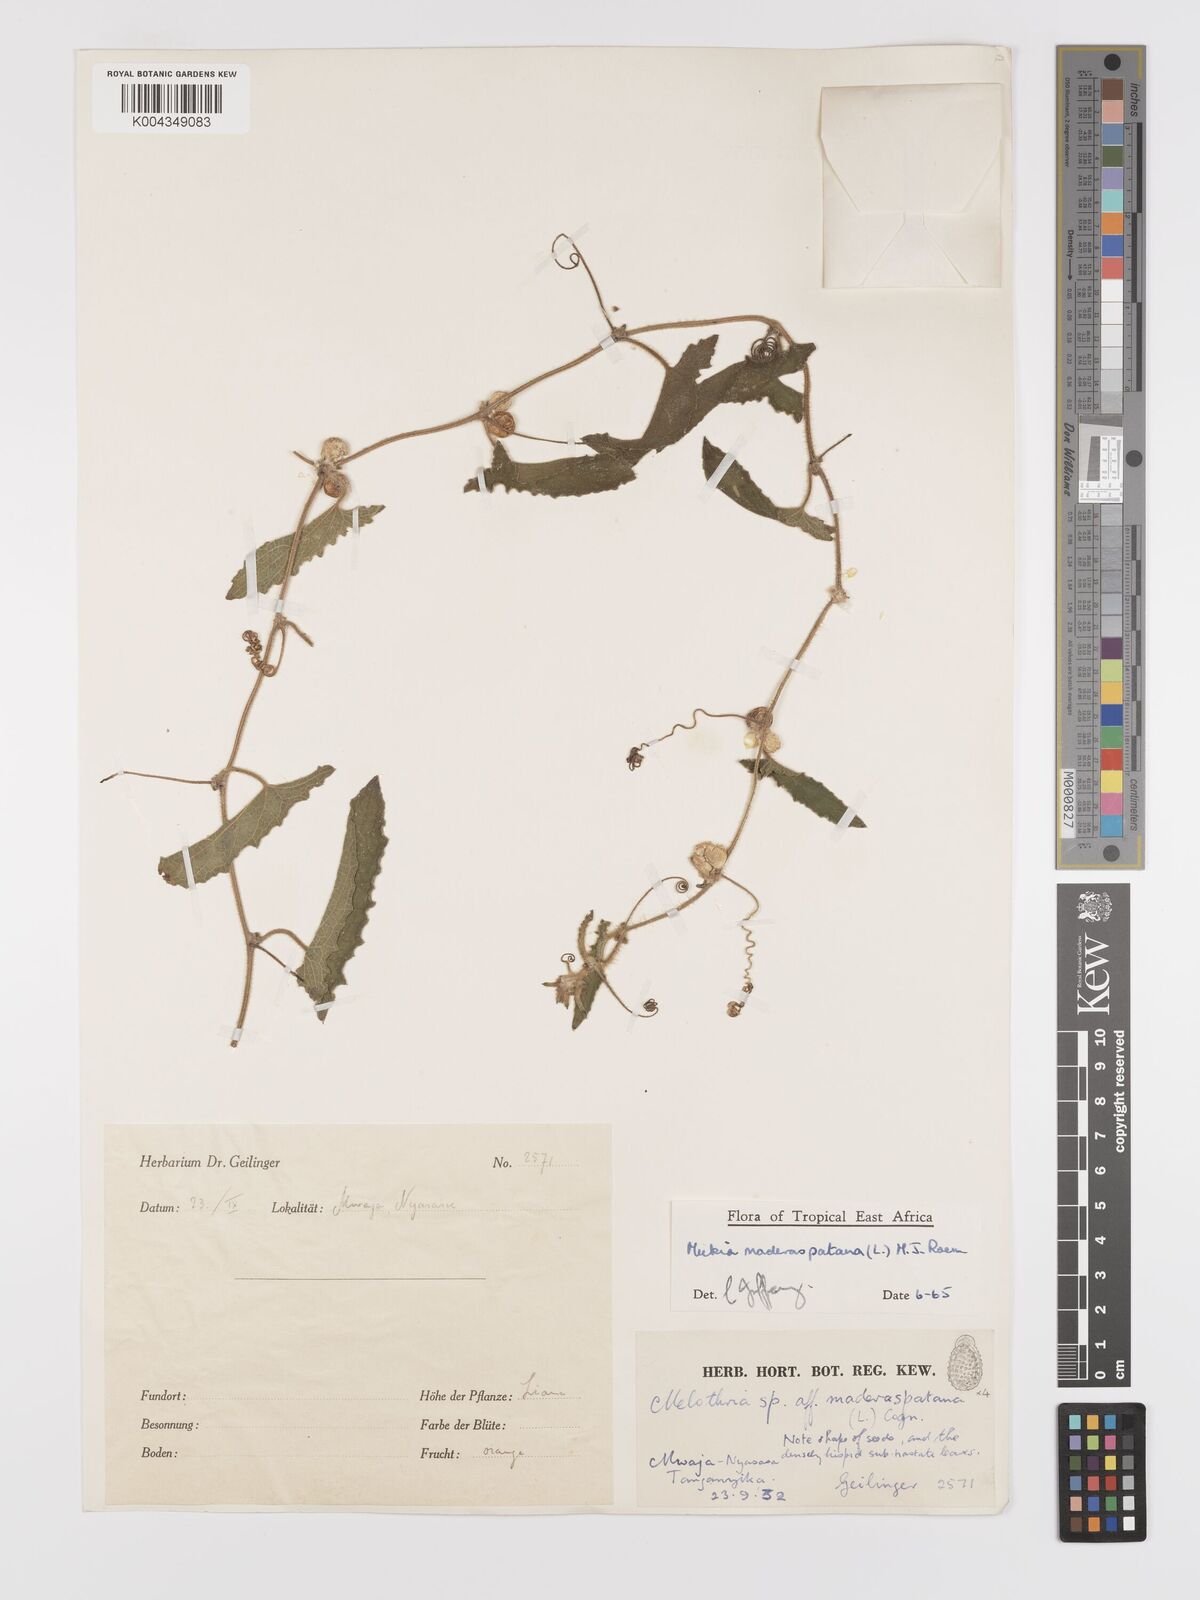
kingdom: Plantae
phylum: Tracheophyta
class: Magnoliopsida
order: Cucurbitales
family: Cucurbitaceae
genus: Cucumis
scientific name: Cucumis maderaspatanus
